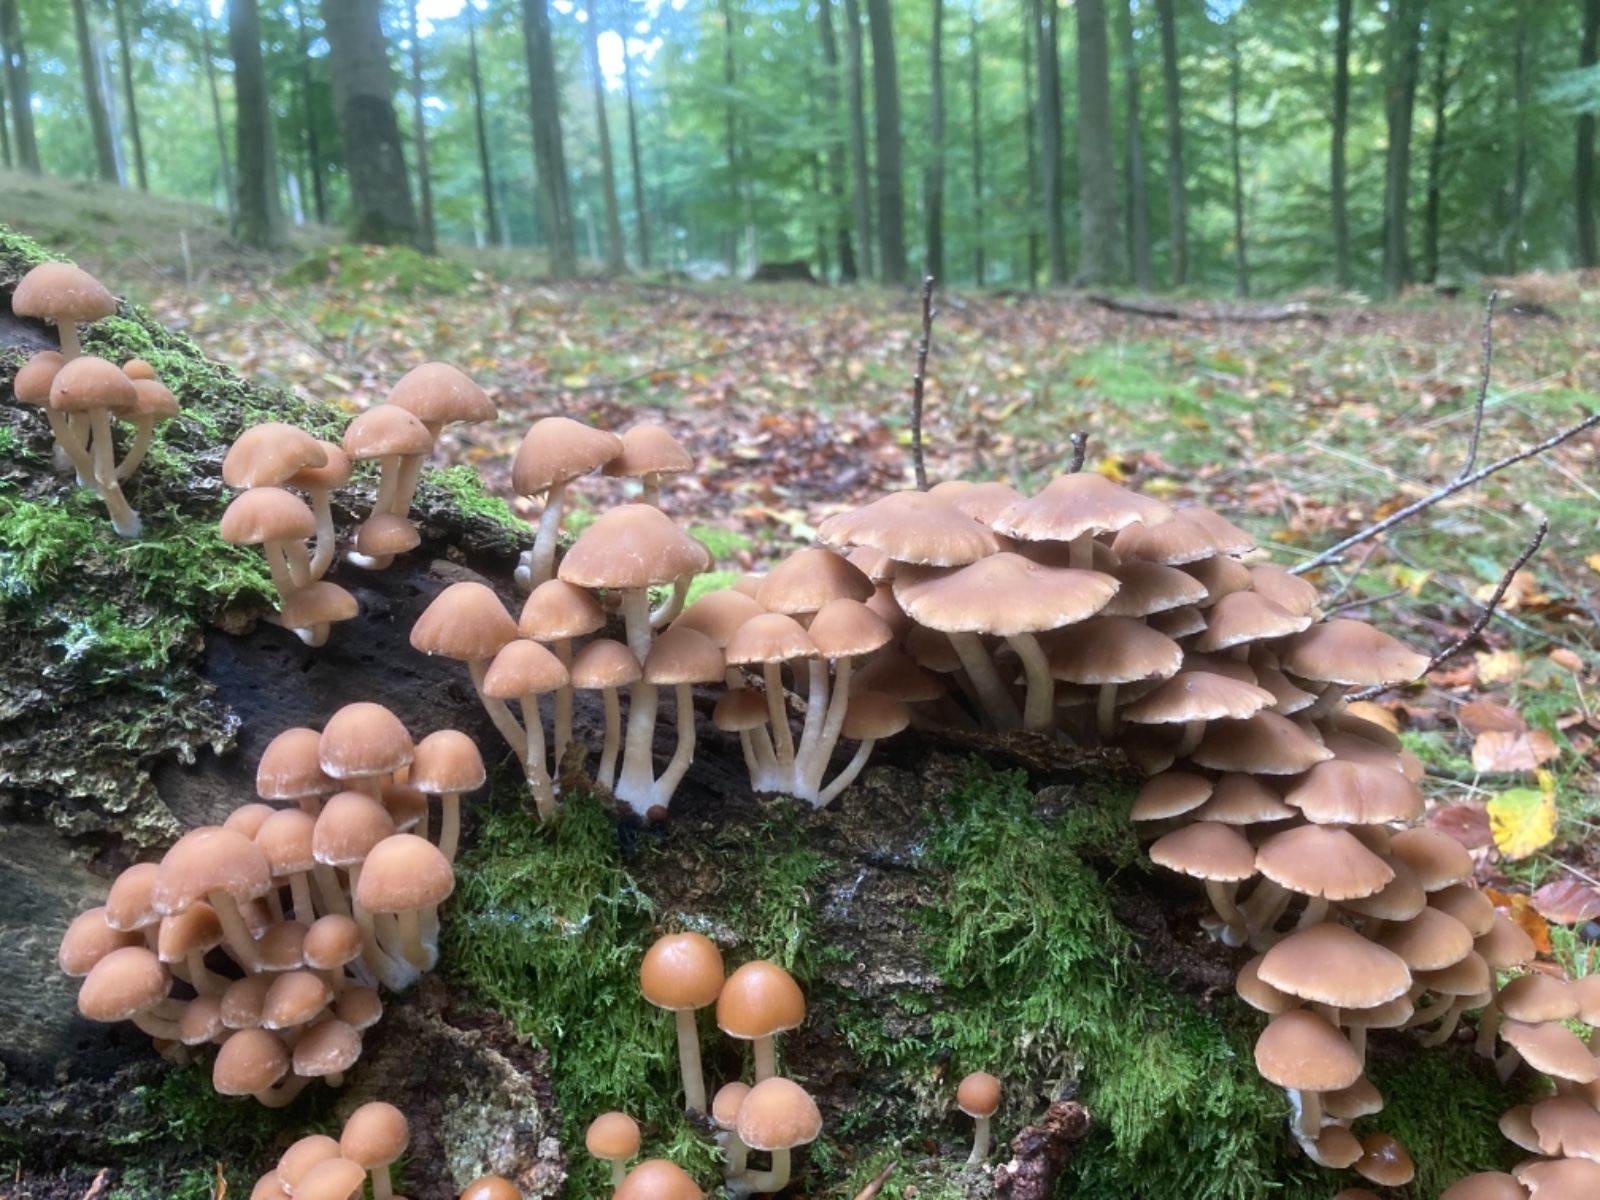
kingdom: Fungi
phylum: Basidiomycota
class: Agaricomycetes
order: Agaricales
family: Psathyrellaceae
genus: Psathyrella
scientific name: Psathyrella piluliformis
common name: lysstokket mørkhat
